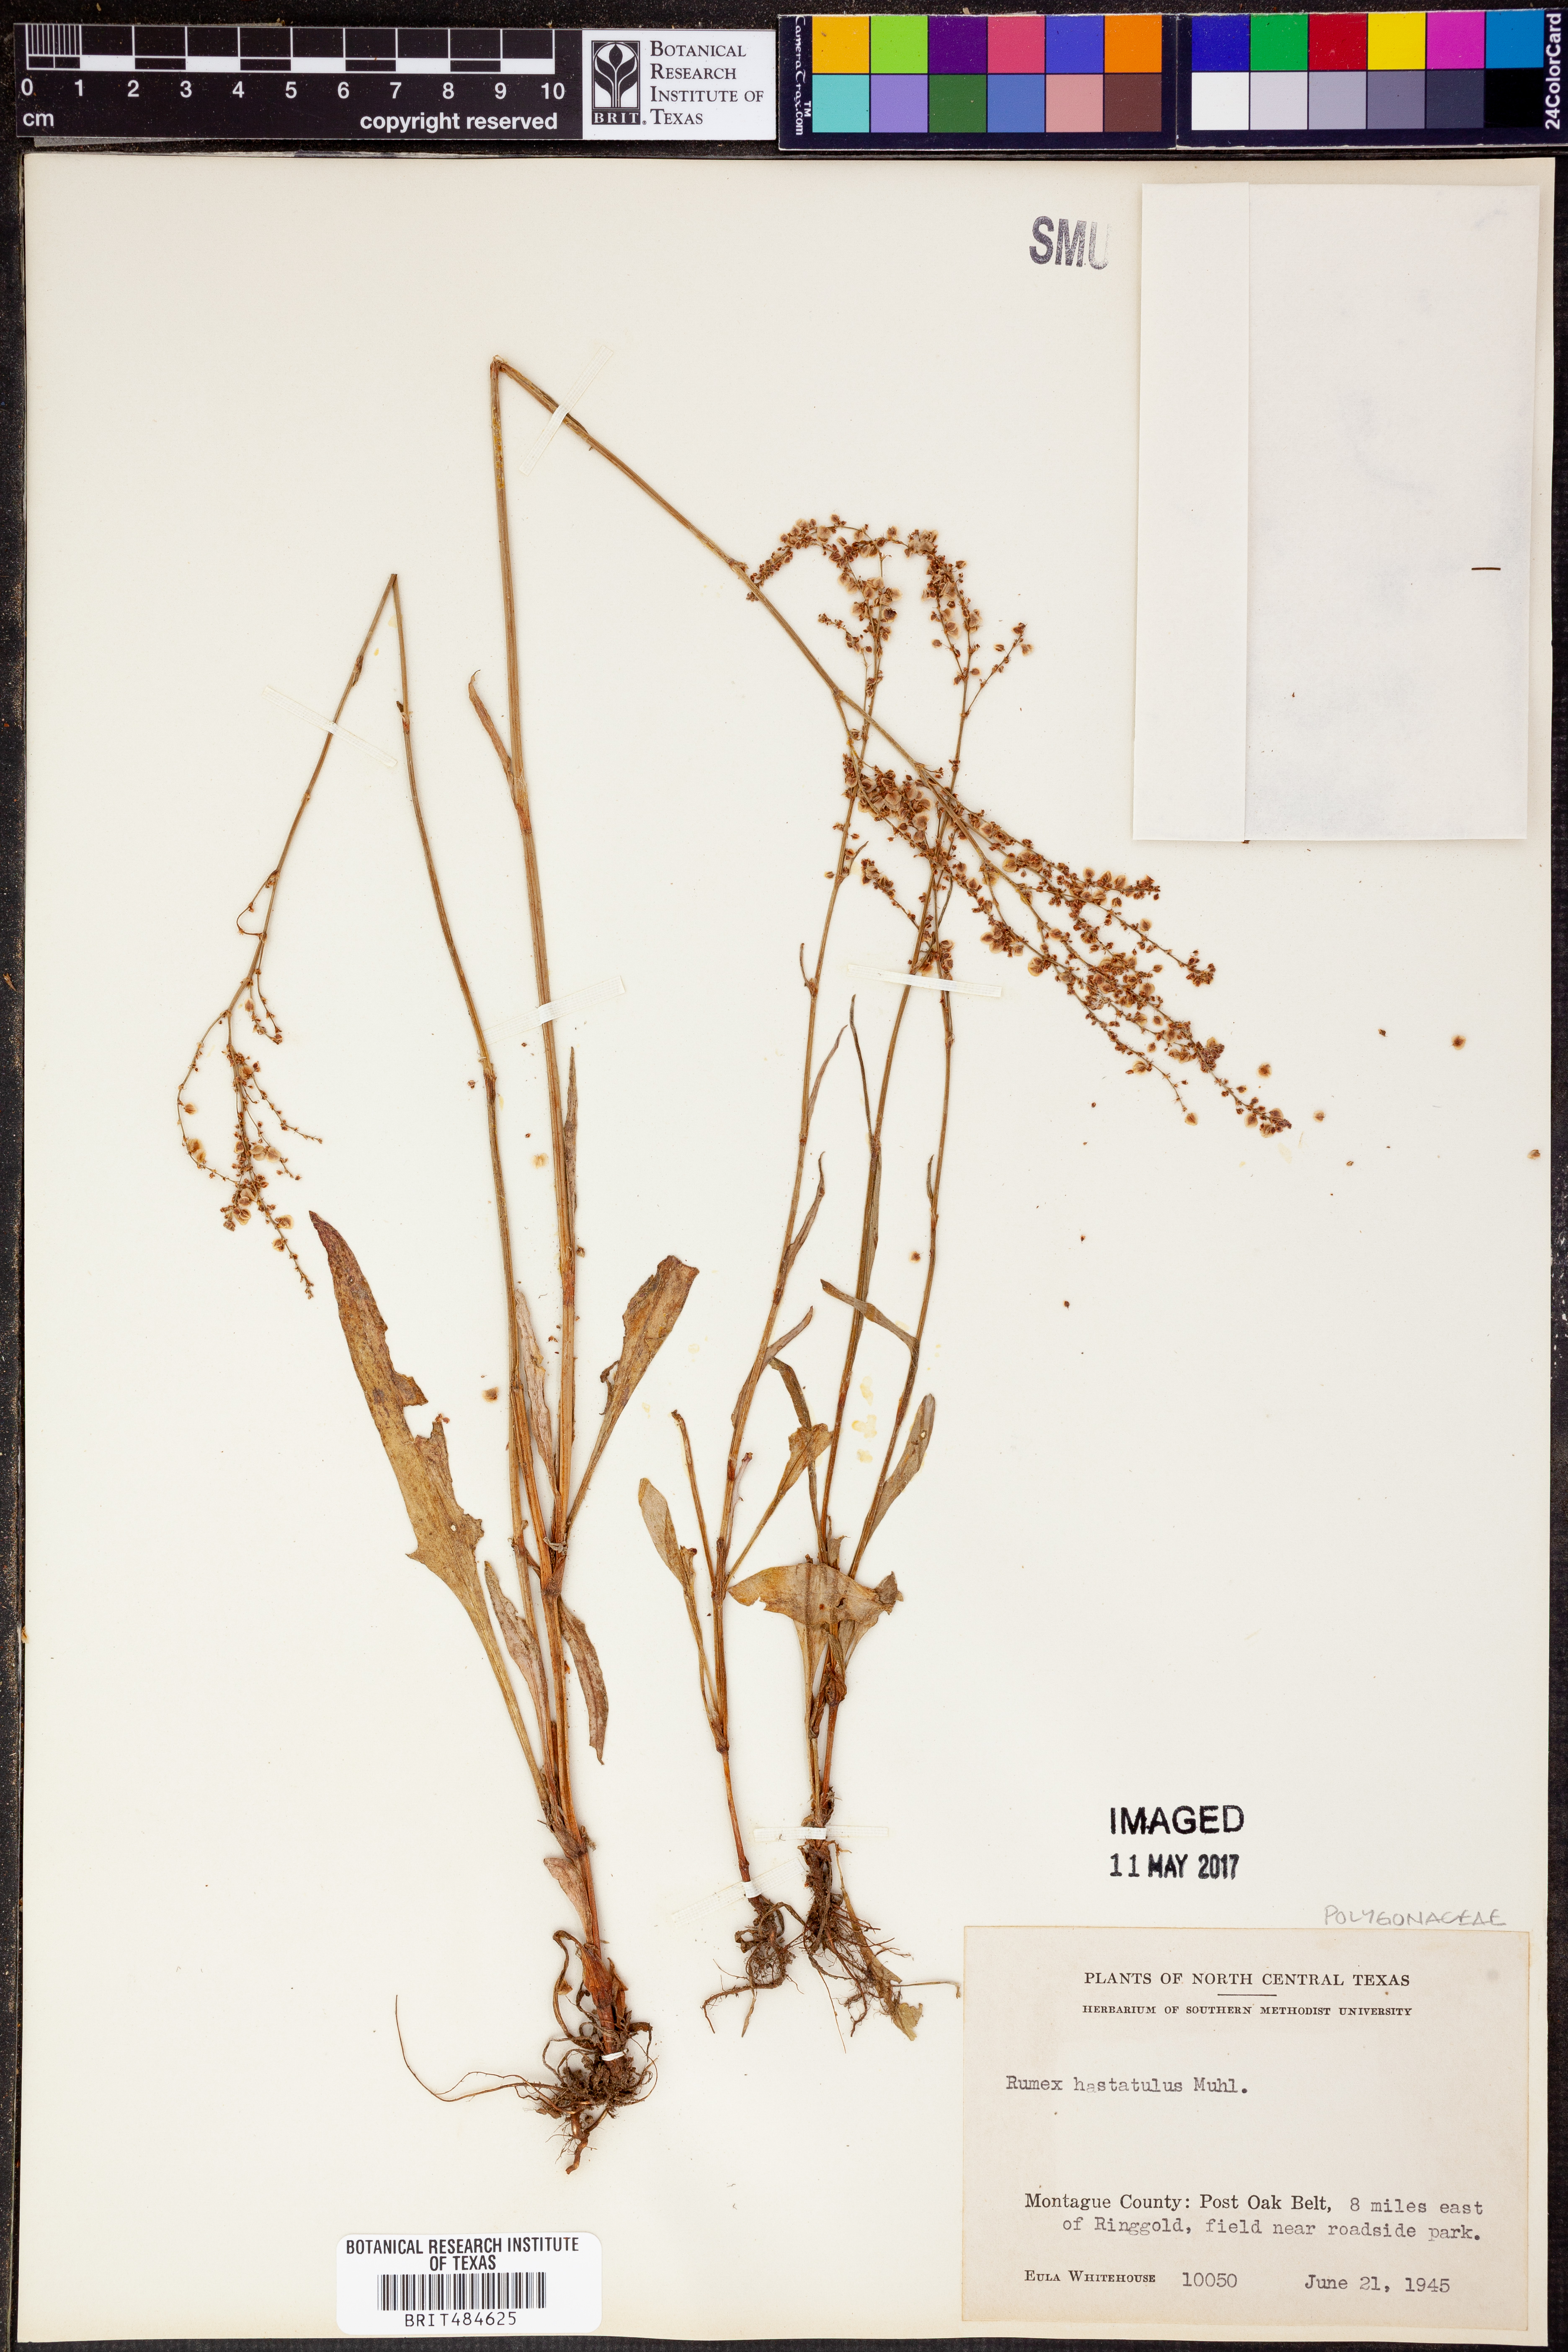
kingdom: Plantae
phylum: Tracheophyta
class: Magnoliopsida
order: Caryophyllales
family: Polygonaceae
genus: Rumex
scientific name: Rumex hastatulus
